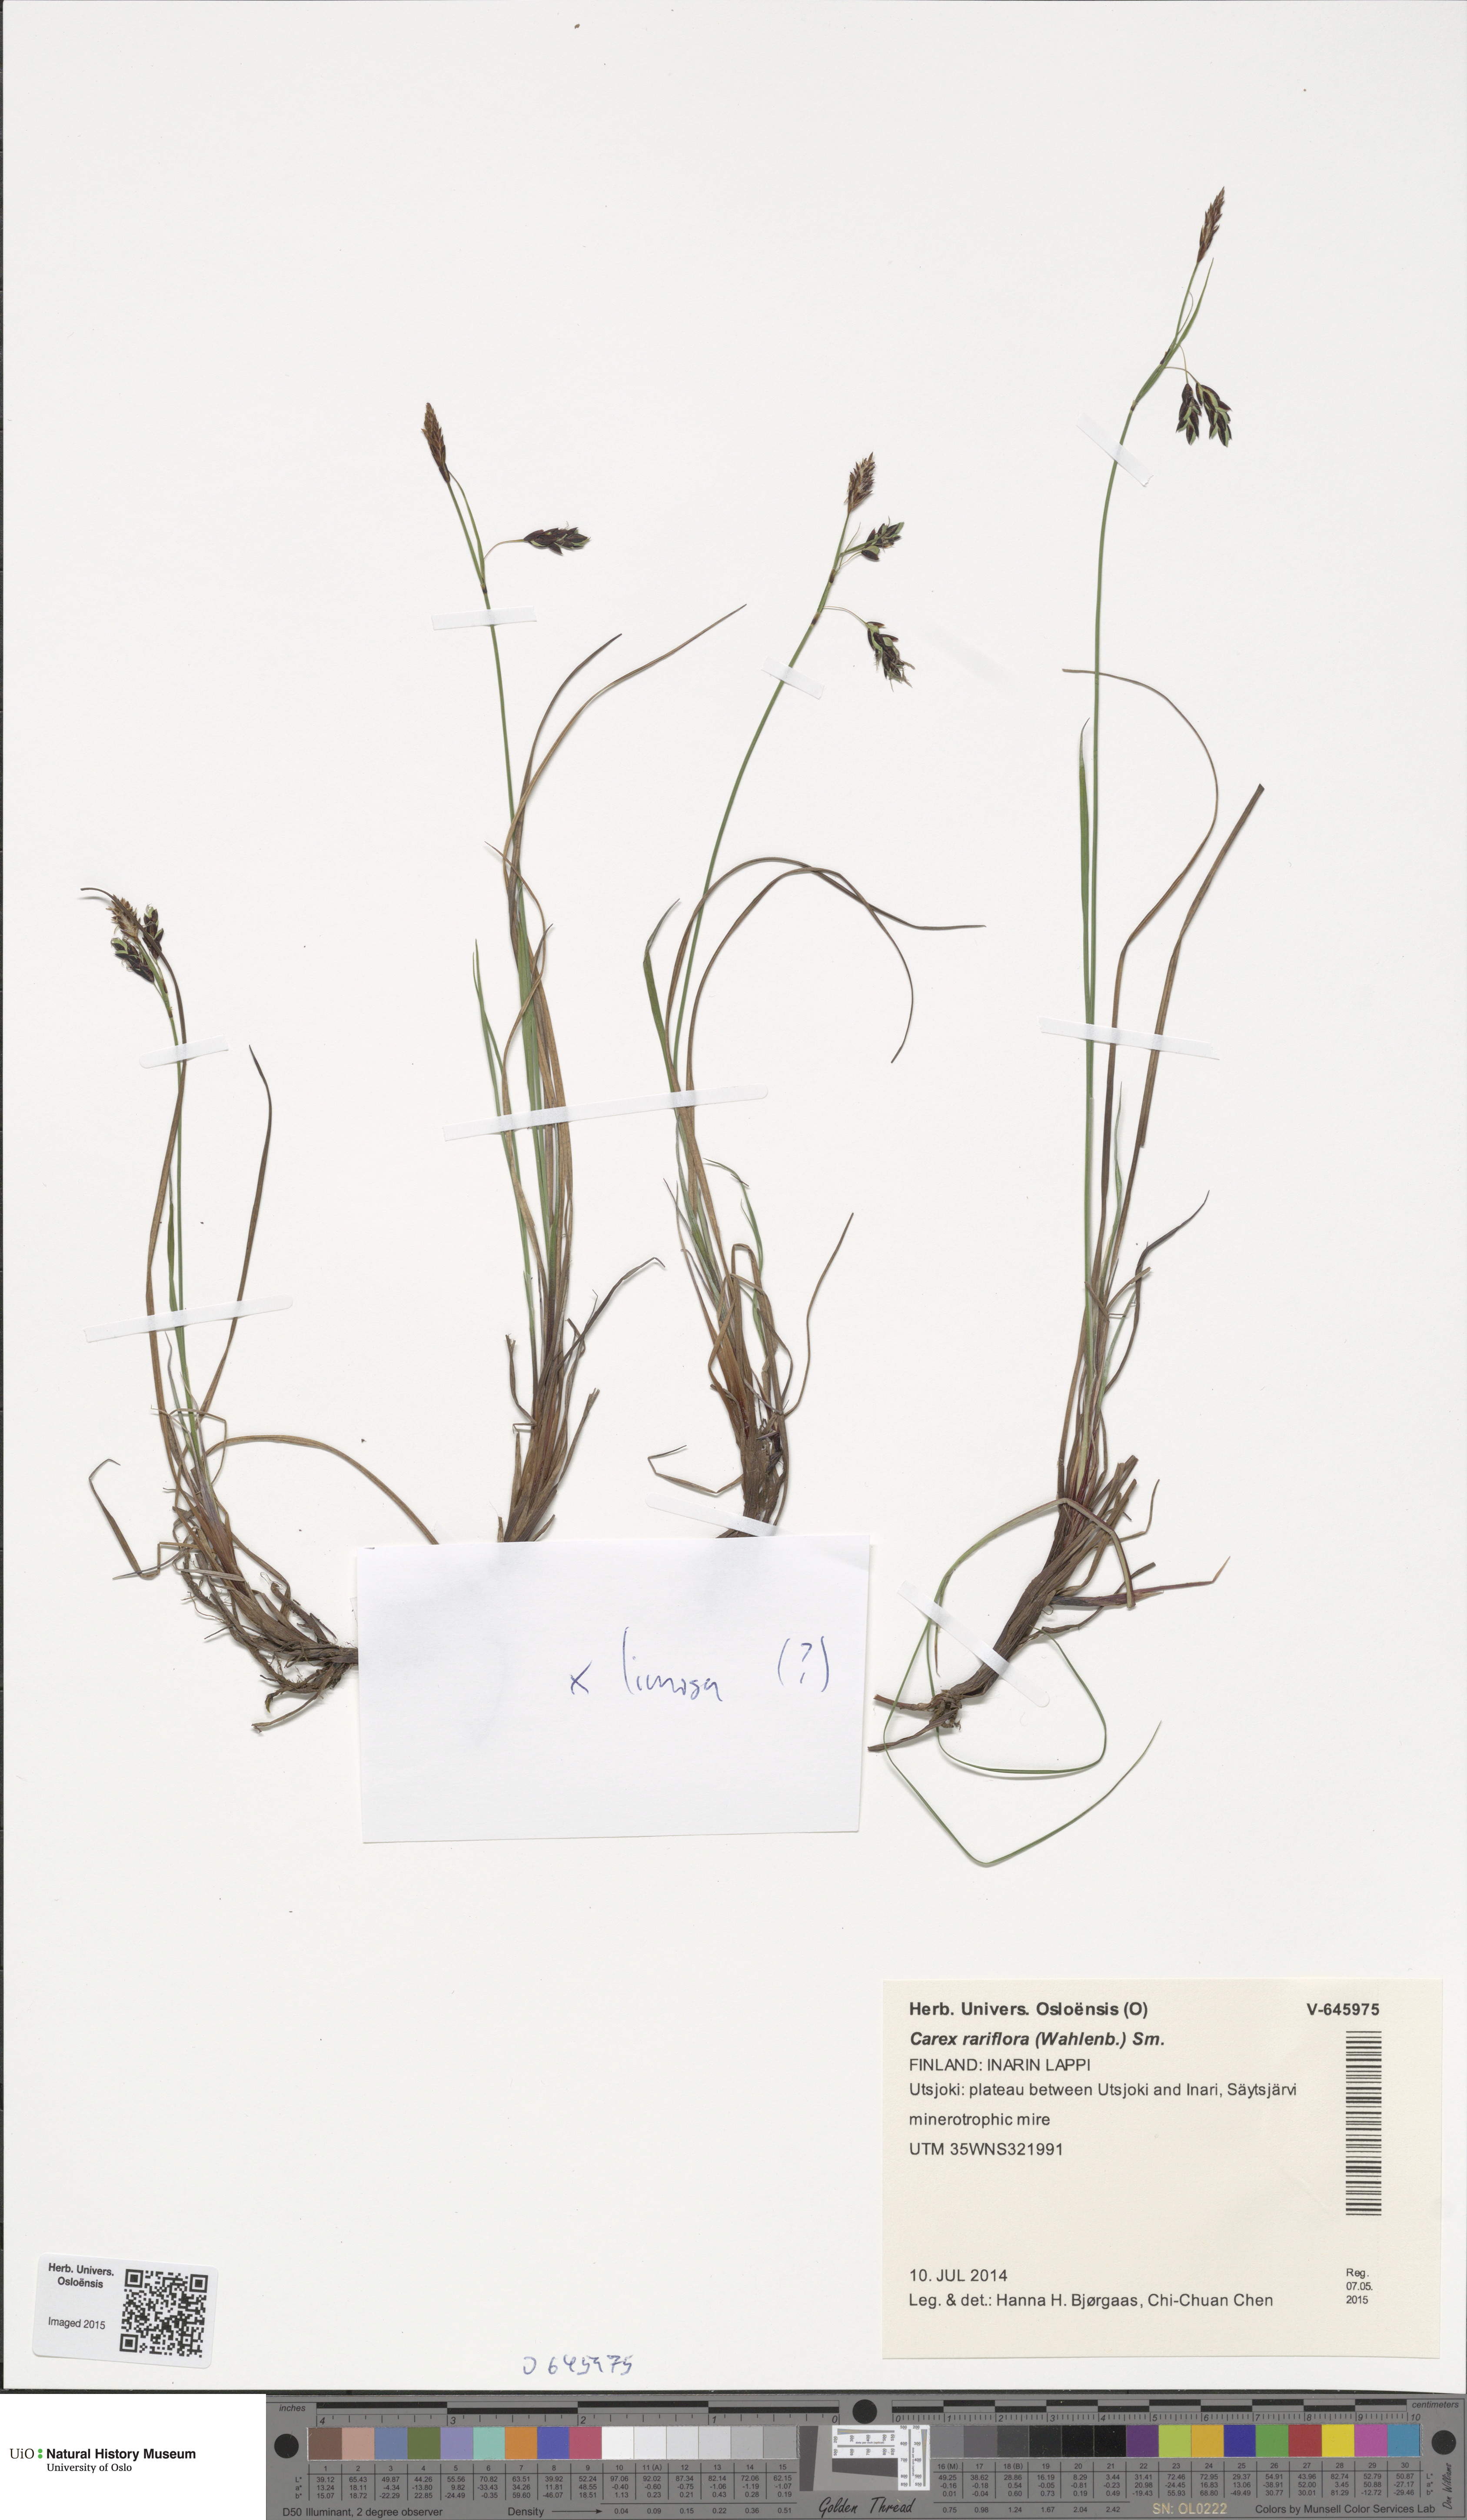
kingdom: Plantae
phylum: Tracheophyta
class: Liliopsida
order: Poales
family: Cyperaceae
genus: Carex
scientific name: Carex rariflora
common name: Loose-flowered alpine sedge
